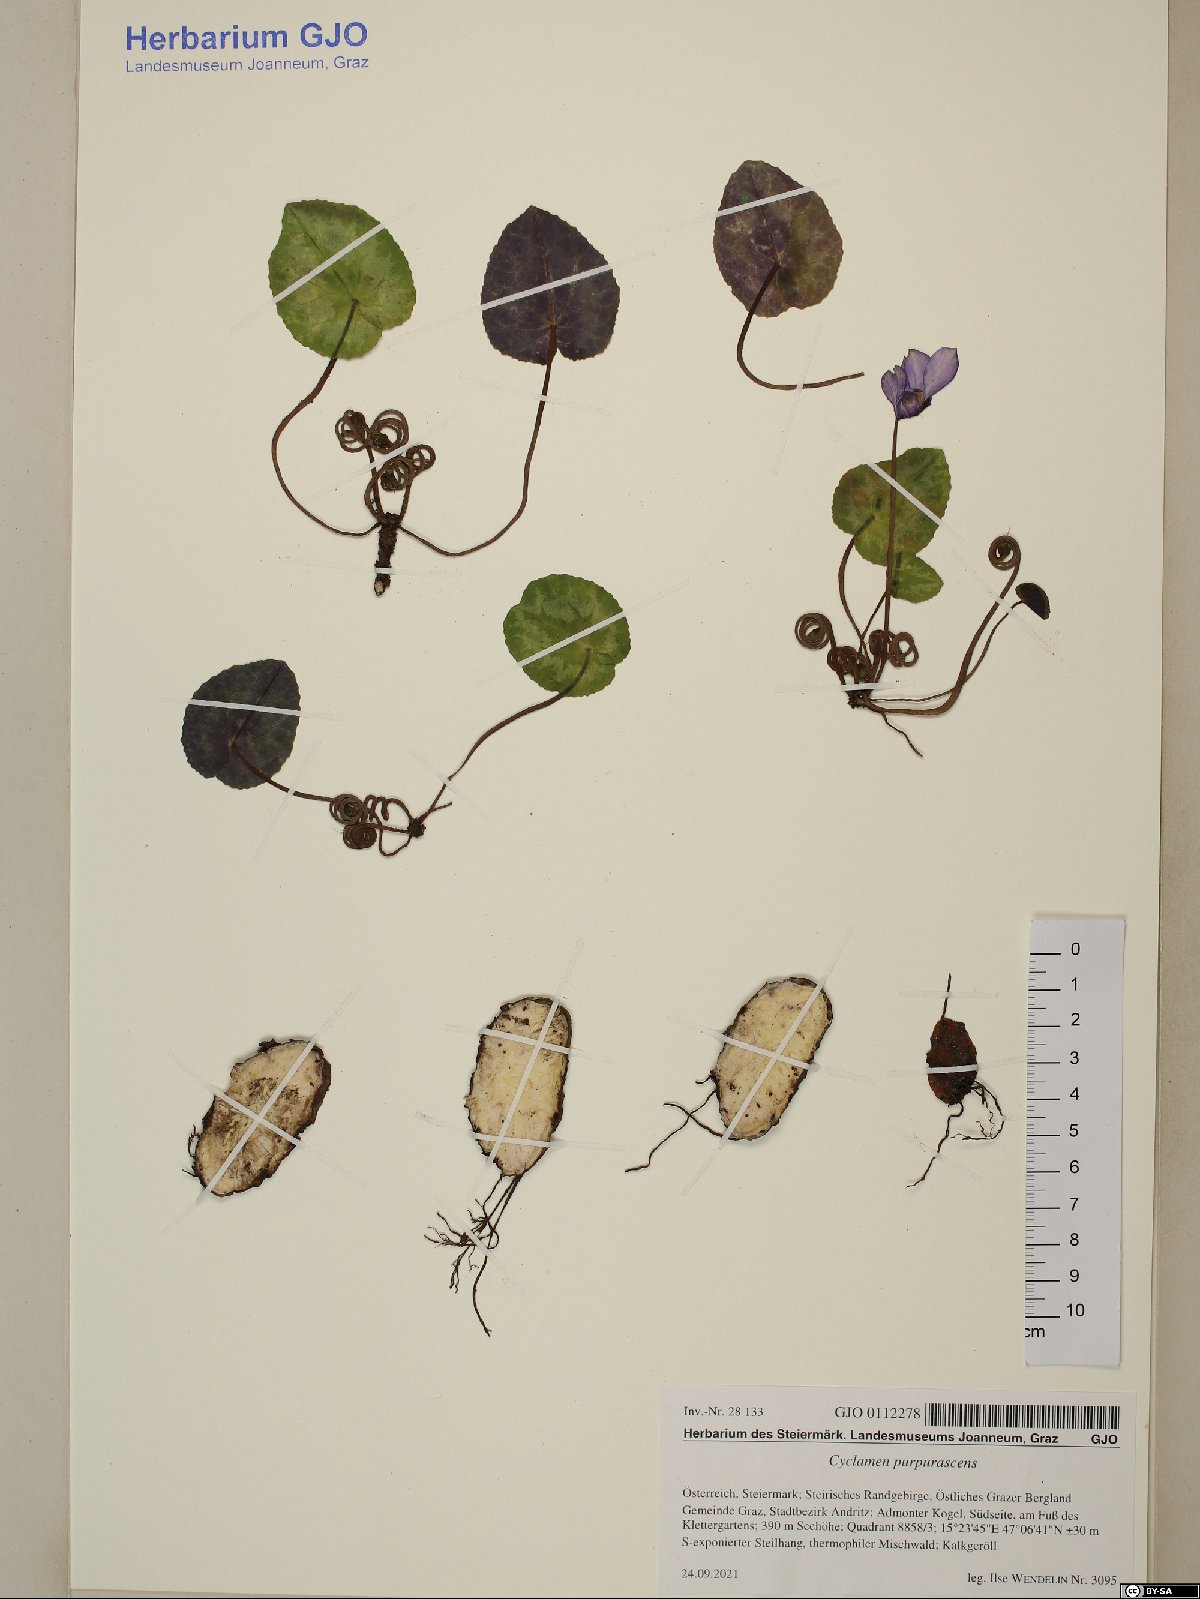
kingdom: Plantae
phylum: Tracheophyta
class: Magnoliopsida
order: Ericales
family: Primulaceae
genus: Cyclamen
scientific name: Cyclamen purpurascens
